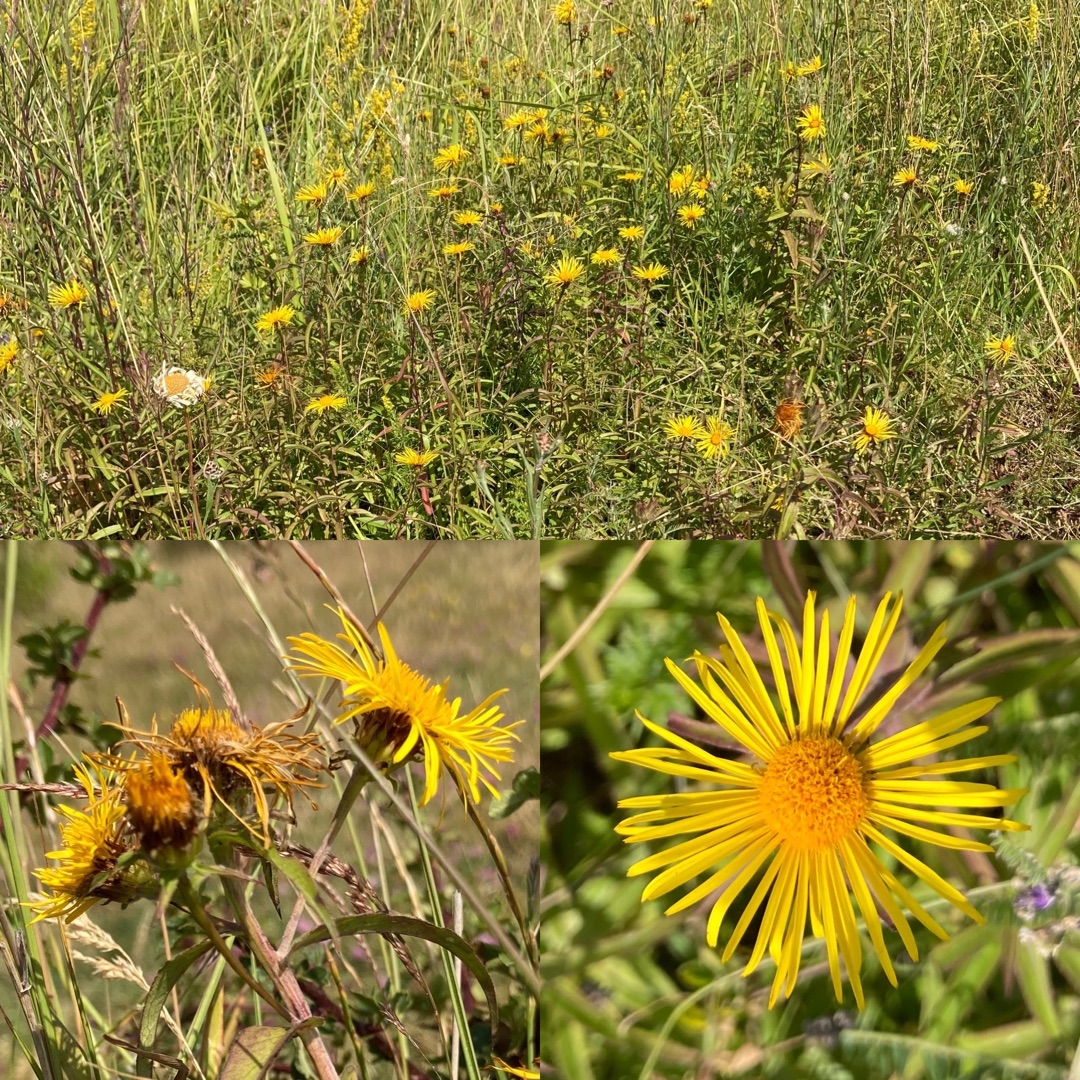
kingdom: Plantae
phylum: Tracheophyta
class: Magnoliopsida
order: Asterales
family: Asteraceae
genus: Pentanema
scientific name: Pentanema salicinum
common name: Pile-alant
